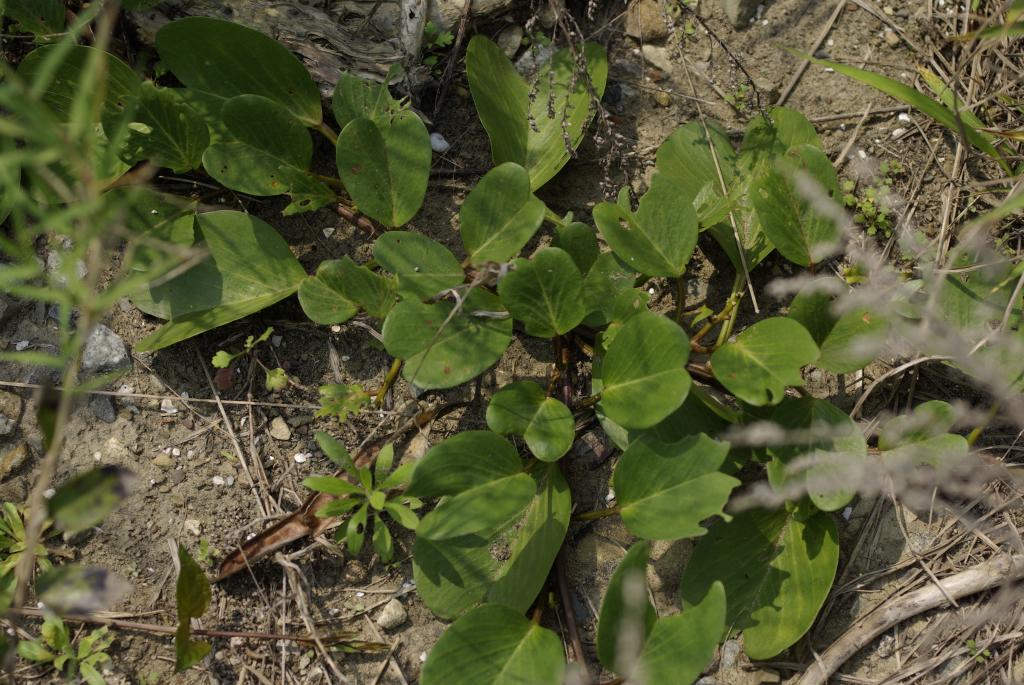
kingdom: Plantae
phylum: Tracheophyta
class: Magnoliopsida
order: Solanales
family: Convolvulaceae
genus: Ipomoea
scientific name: Ipomoea pes-caprae
